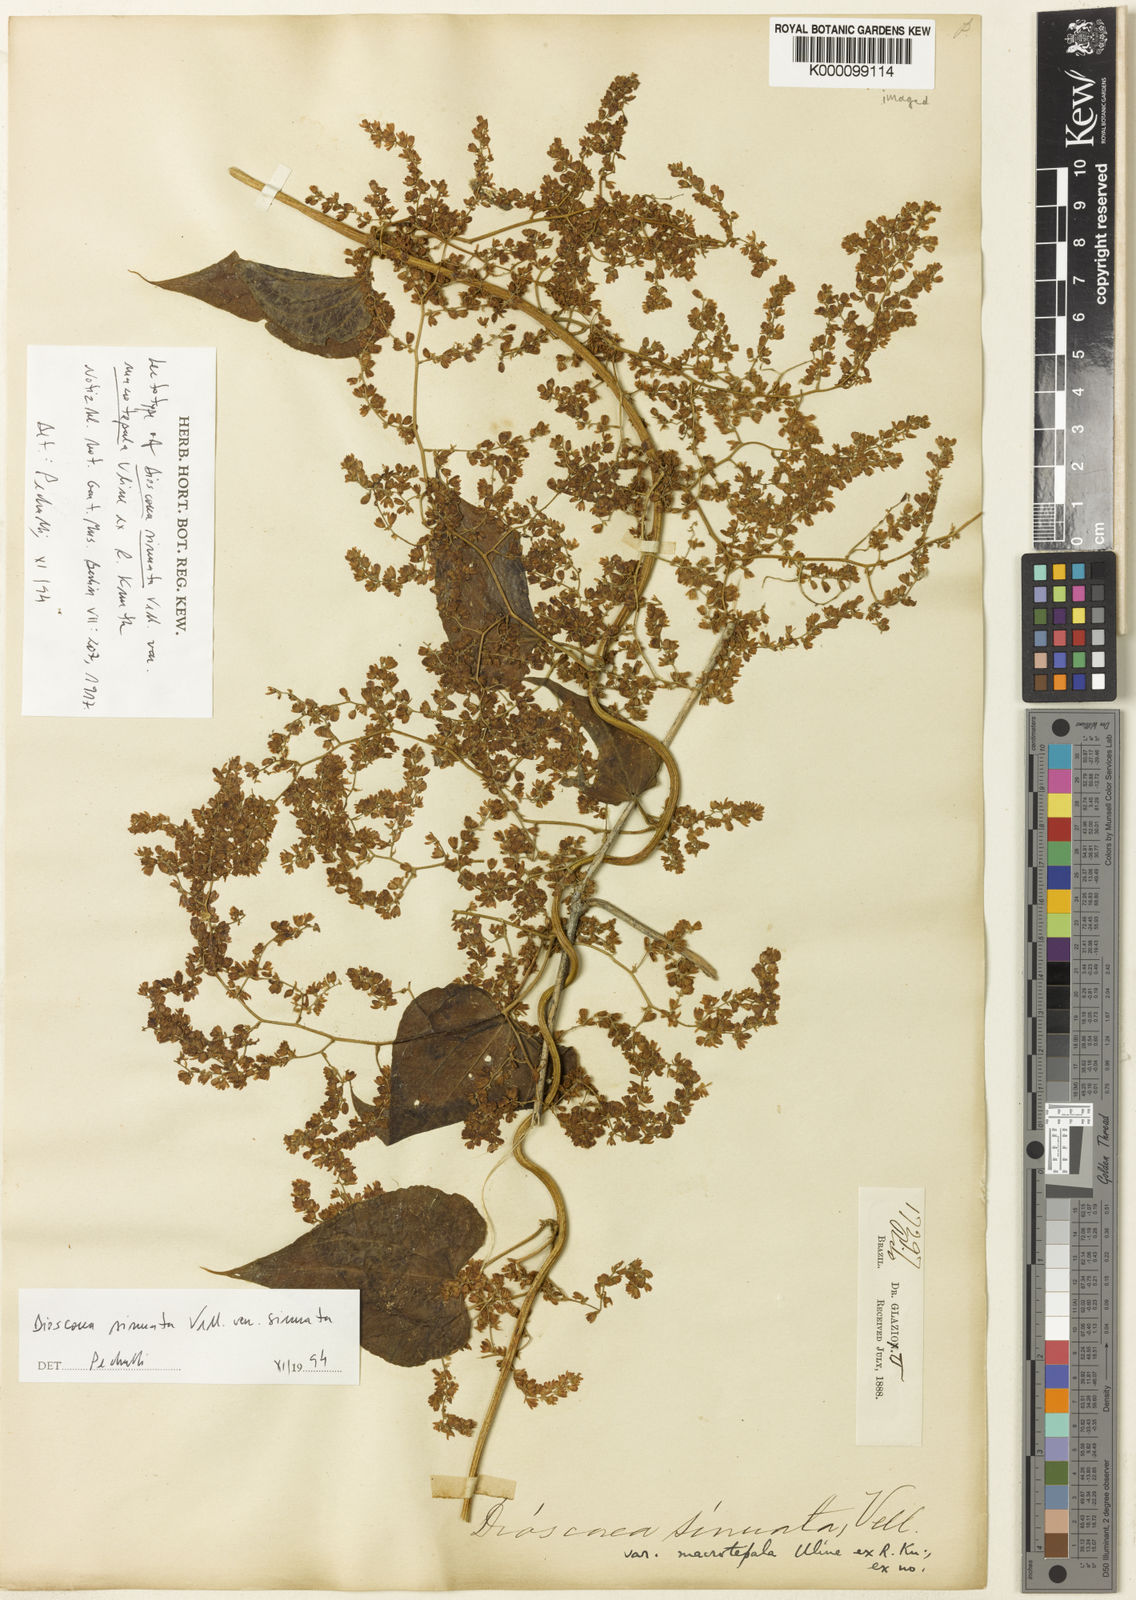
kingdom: Plantae
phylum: Tracheophyta
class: Liliopsida
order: Dioscoreales
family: Dioscoreaceae
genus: Dioscorea
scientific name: Dioscorea sinuata
